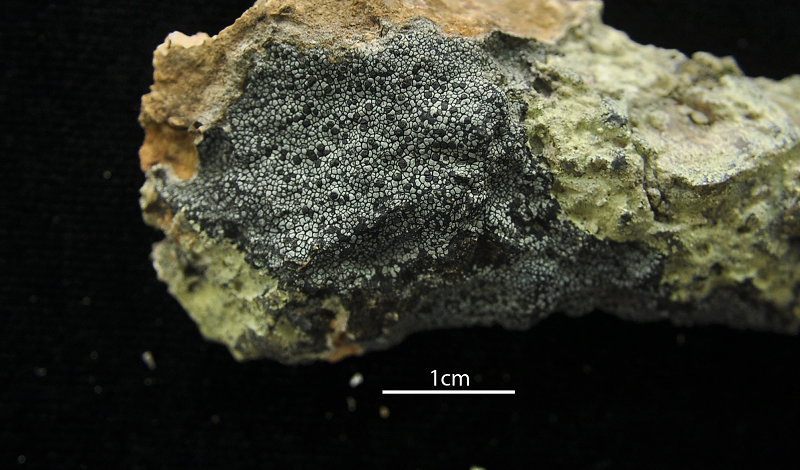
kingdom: Fungi
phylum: Ascomycota
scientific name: Ascomycota
